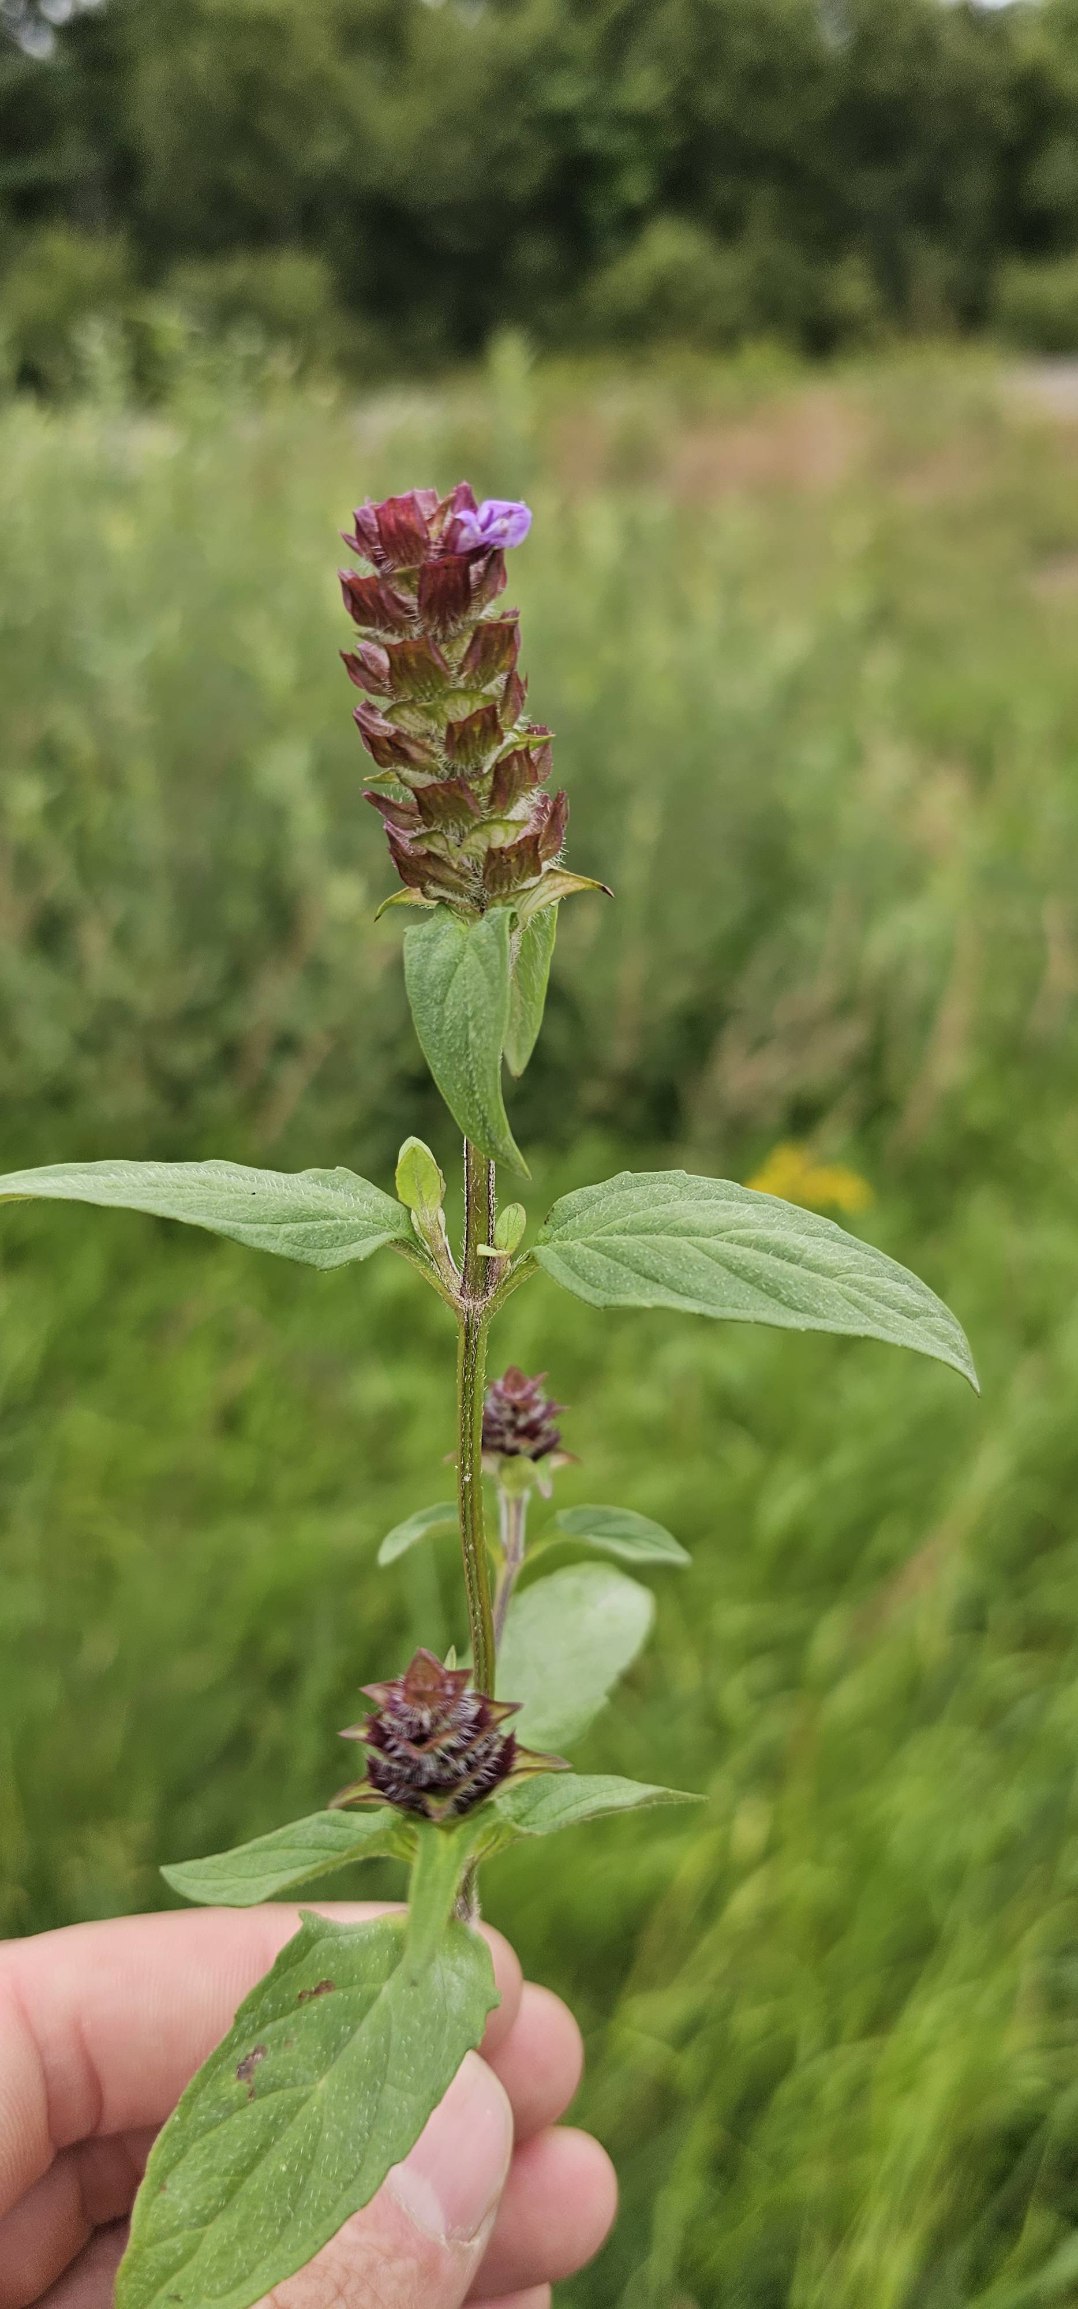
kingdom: Plantae
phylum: Tracheophyta
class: Magnoliopsida
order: Lamiales
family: Lamiaceae
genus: Prunella
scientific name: Prunella vulgaris
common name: Almindelig brunelle
